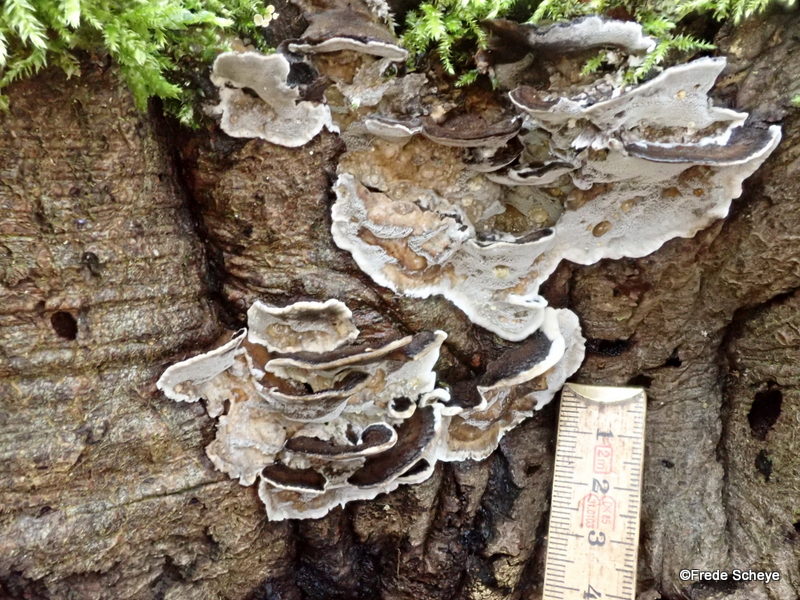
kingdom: Fungi
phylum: Basidiomycota
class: Agaricomycetes
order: Polyporales
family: Phanerochaetaceae
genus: Bjerkandera
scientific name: Bjerkandera adusta
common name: sveden sodporesvamp
